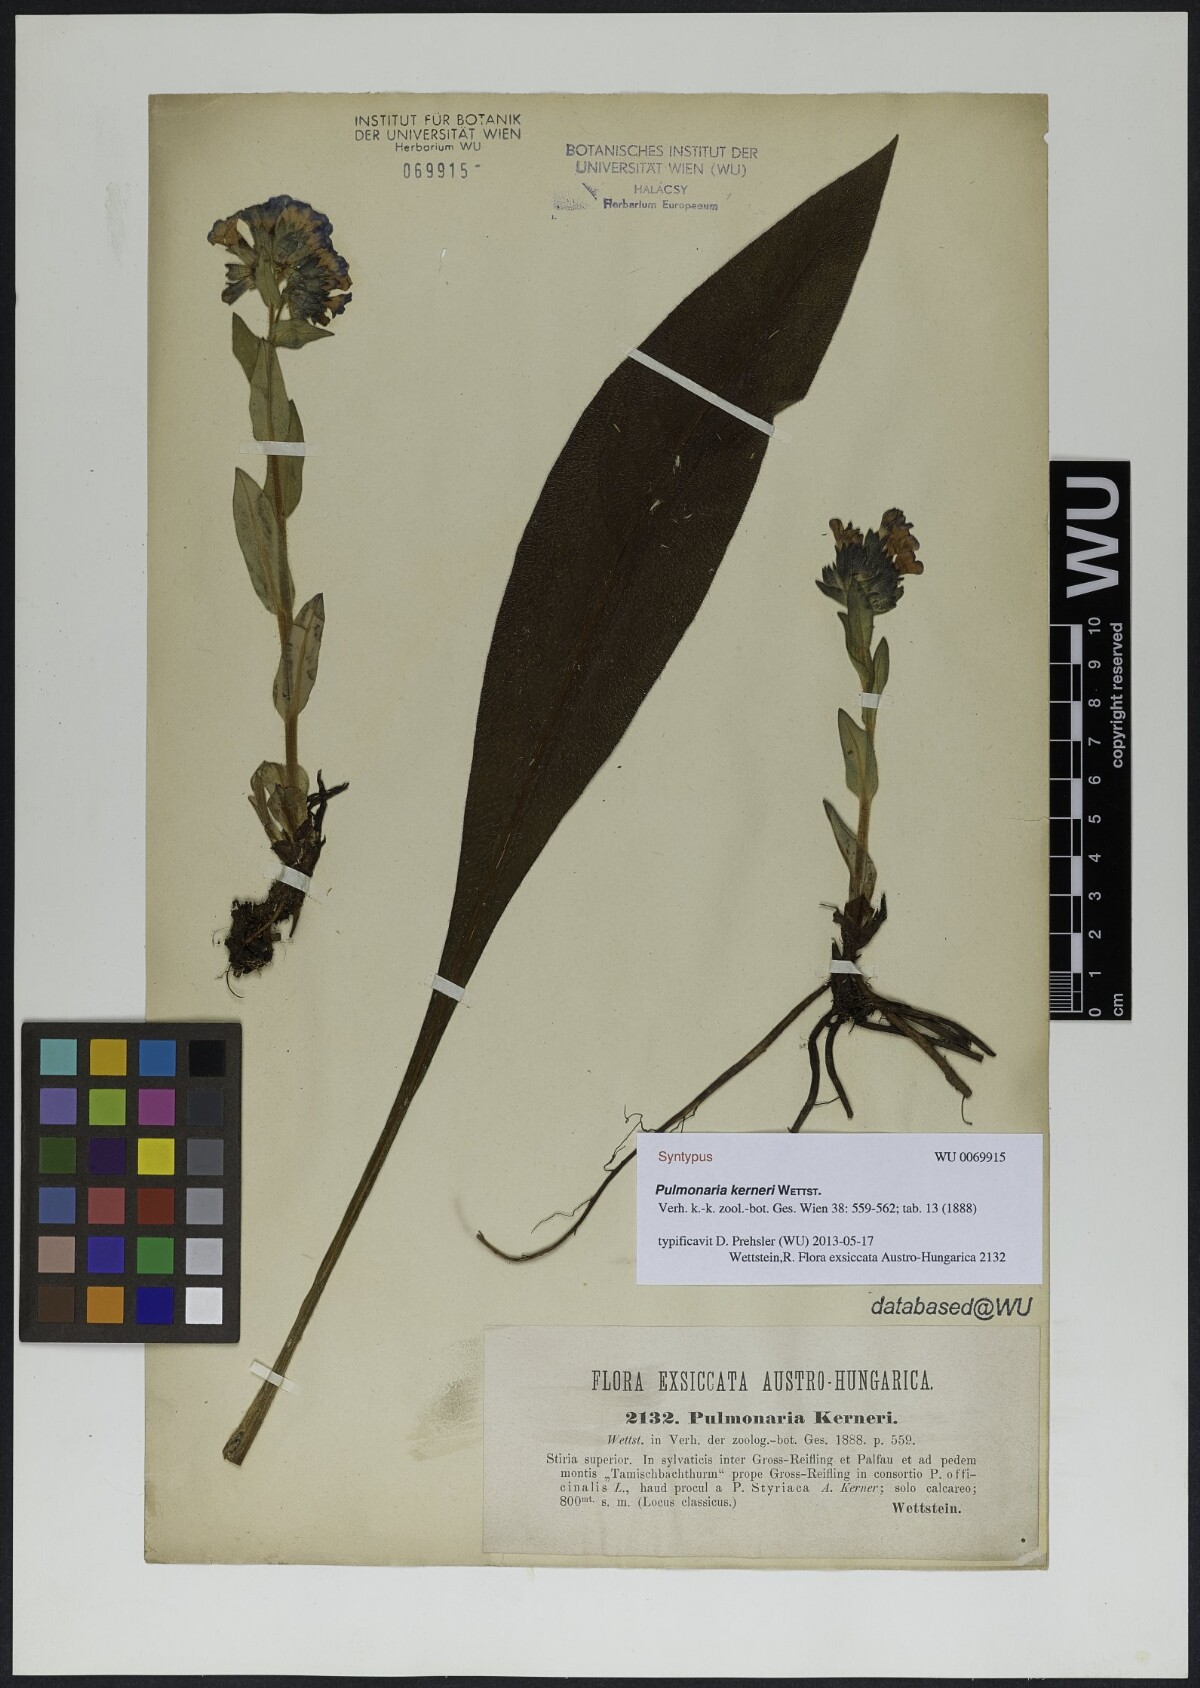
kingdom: Plantae
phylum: Tracheophyta
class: Magnoliopsida
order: Boraginales
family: Boraginaceae
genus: Pulmonaria
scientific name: Pulmonaria kerneri
